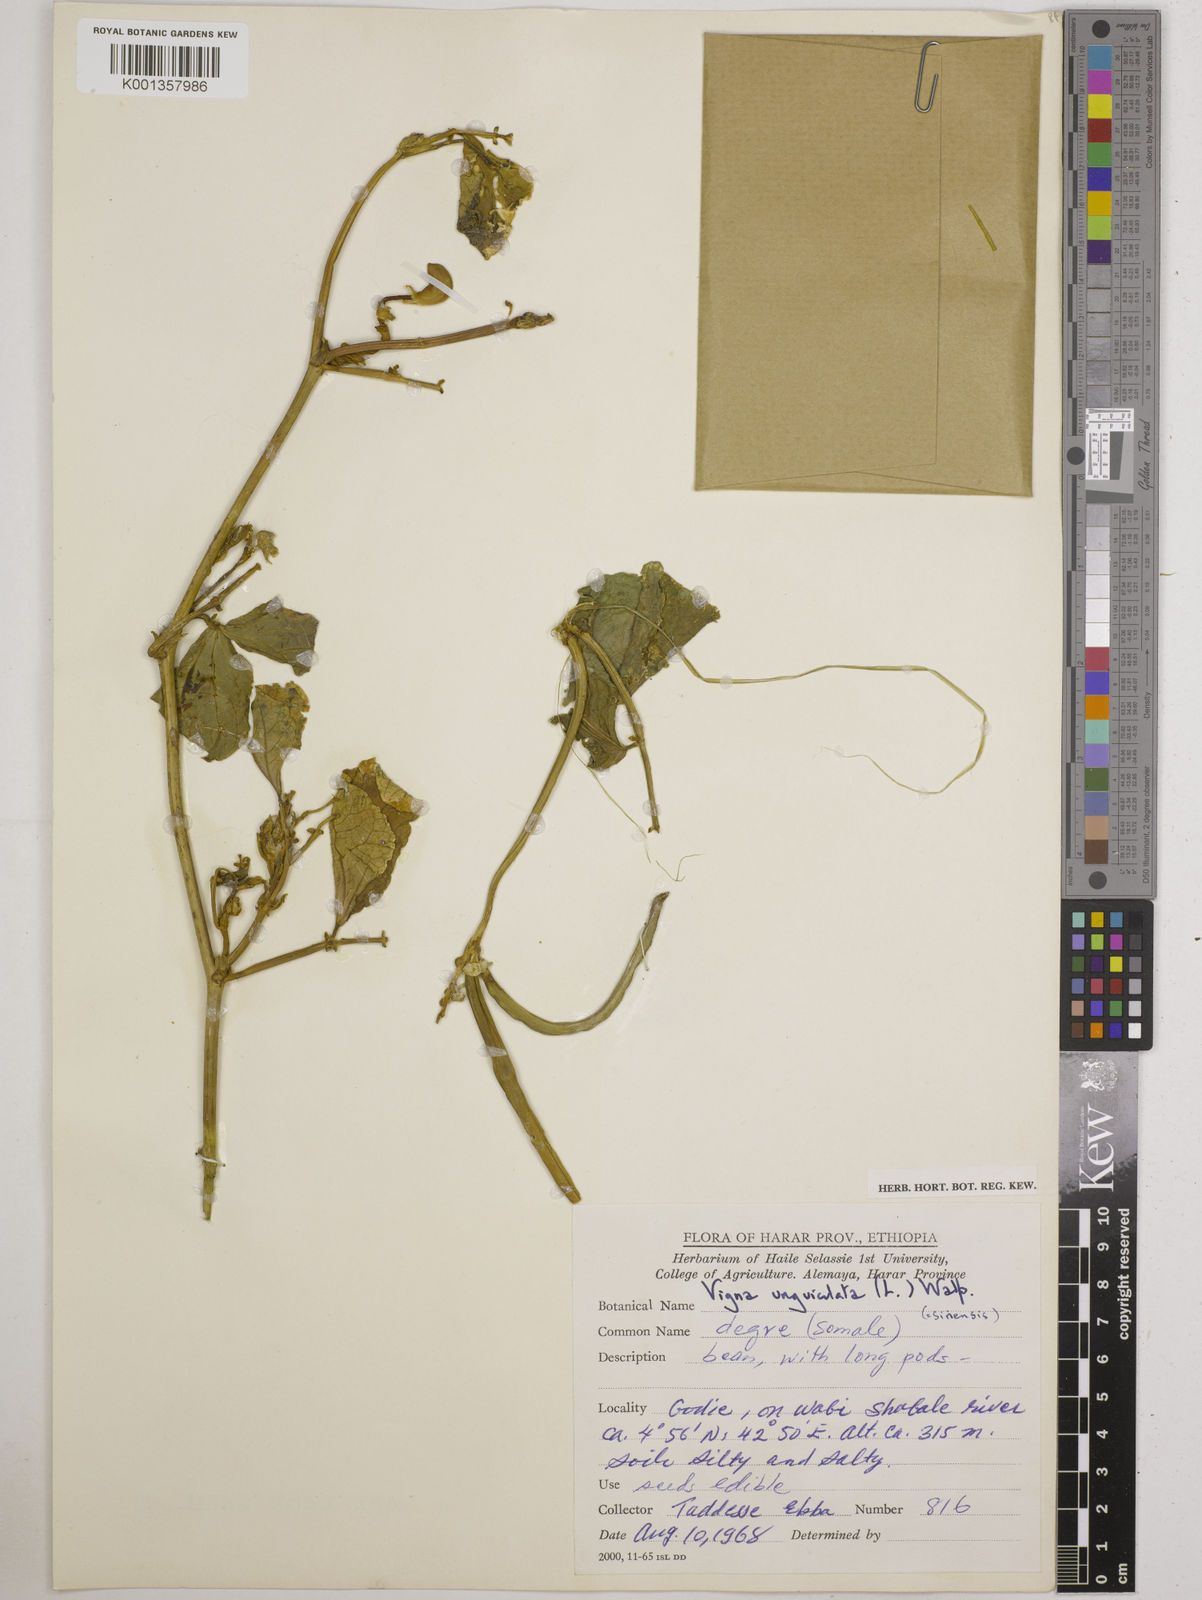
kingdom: Plantae
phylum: Tracheophyta
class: Magnoliopsida
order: Fabales
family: Fabaceae
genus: Vigna
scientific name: Vigna
